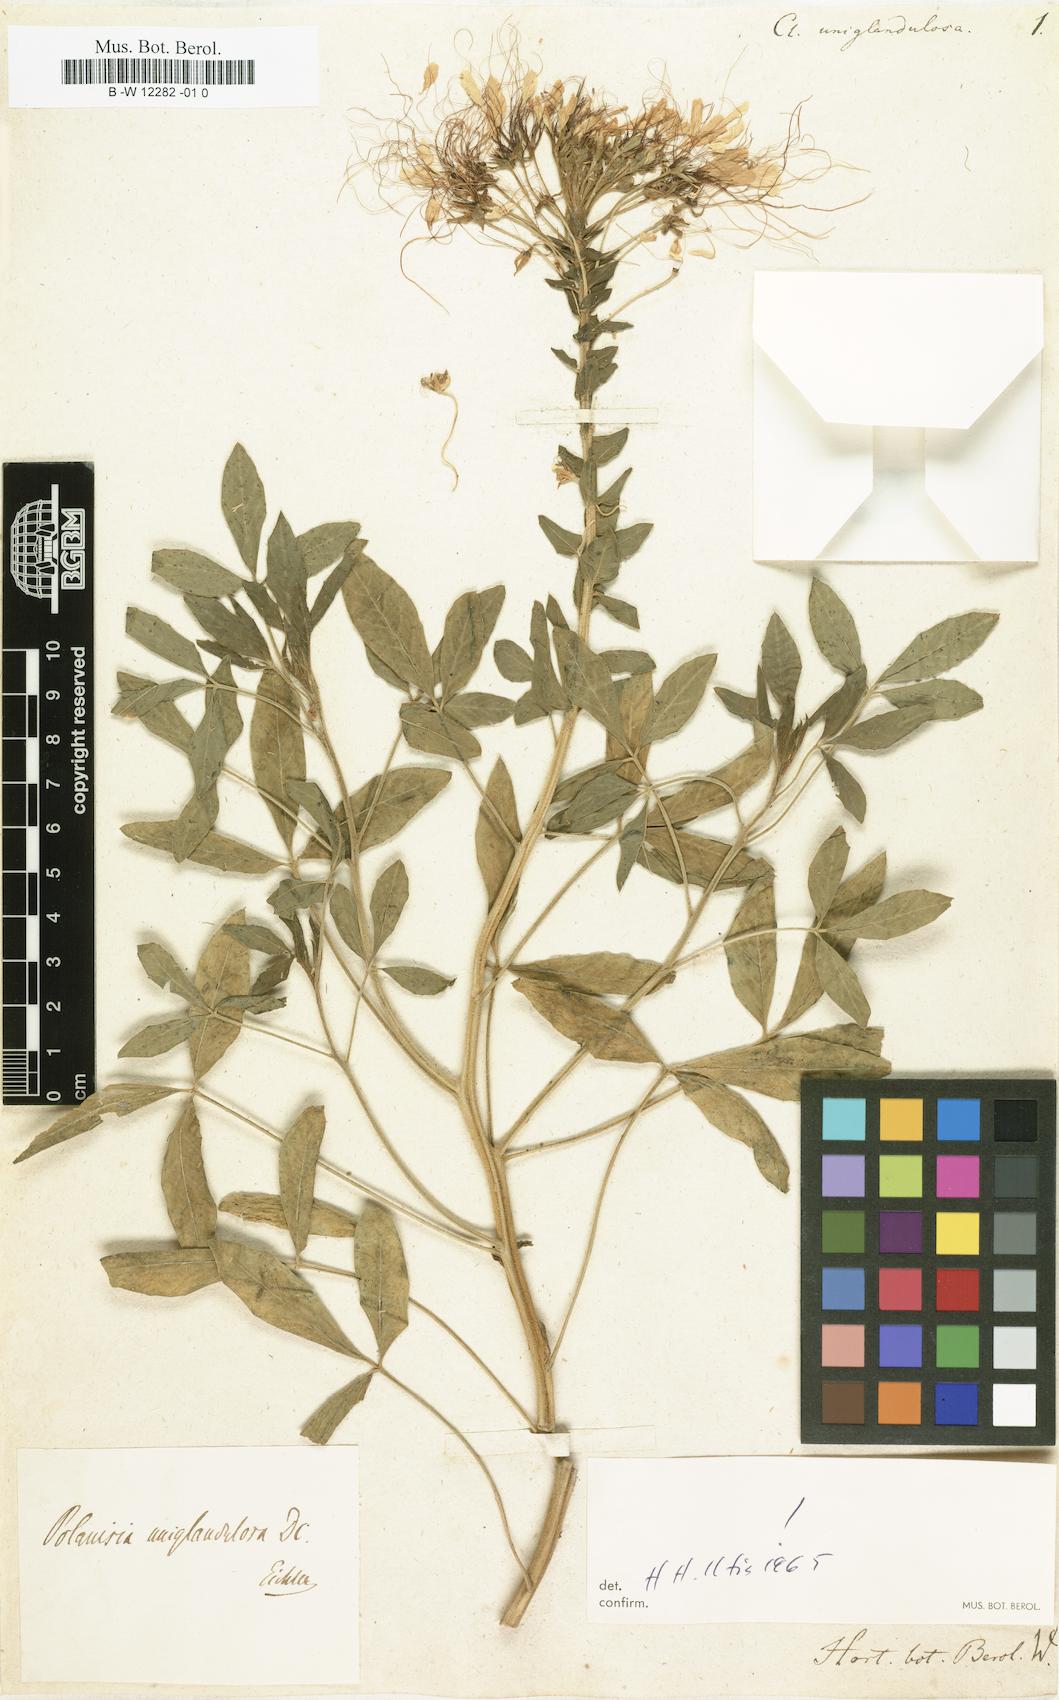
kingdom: Plantae
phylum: Tracheophyta
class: Magnoliopsida
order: Brassicales
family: Cleomaceae
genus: Polanisia
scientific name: Polanisia uniglandulosa
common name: Mexican clammyweed
